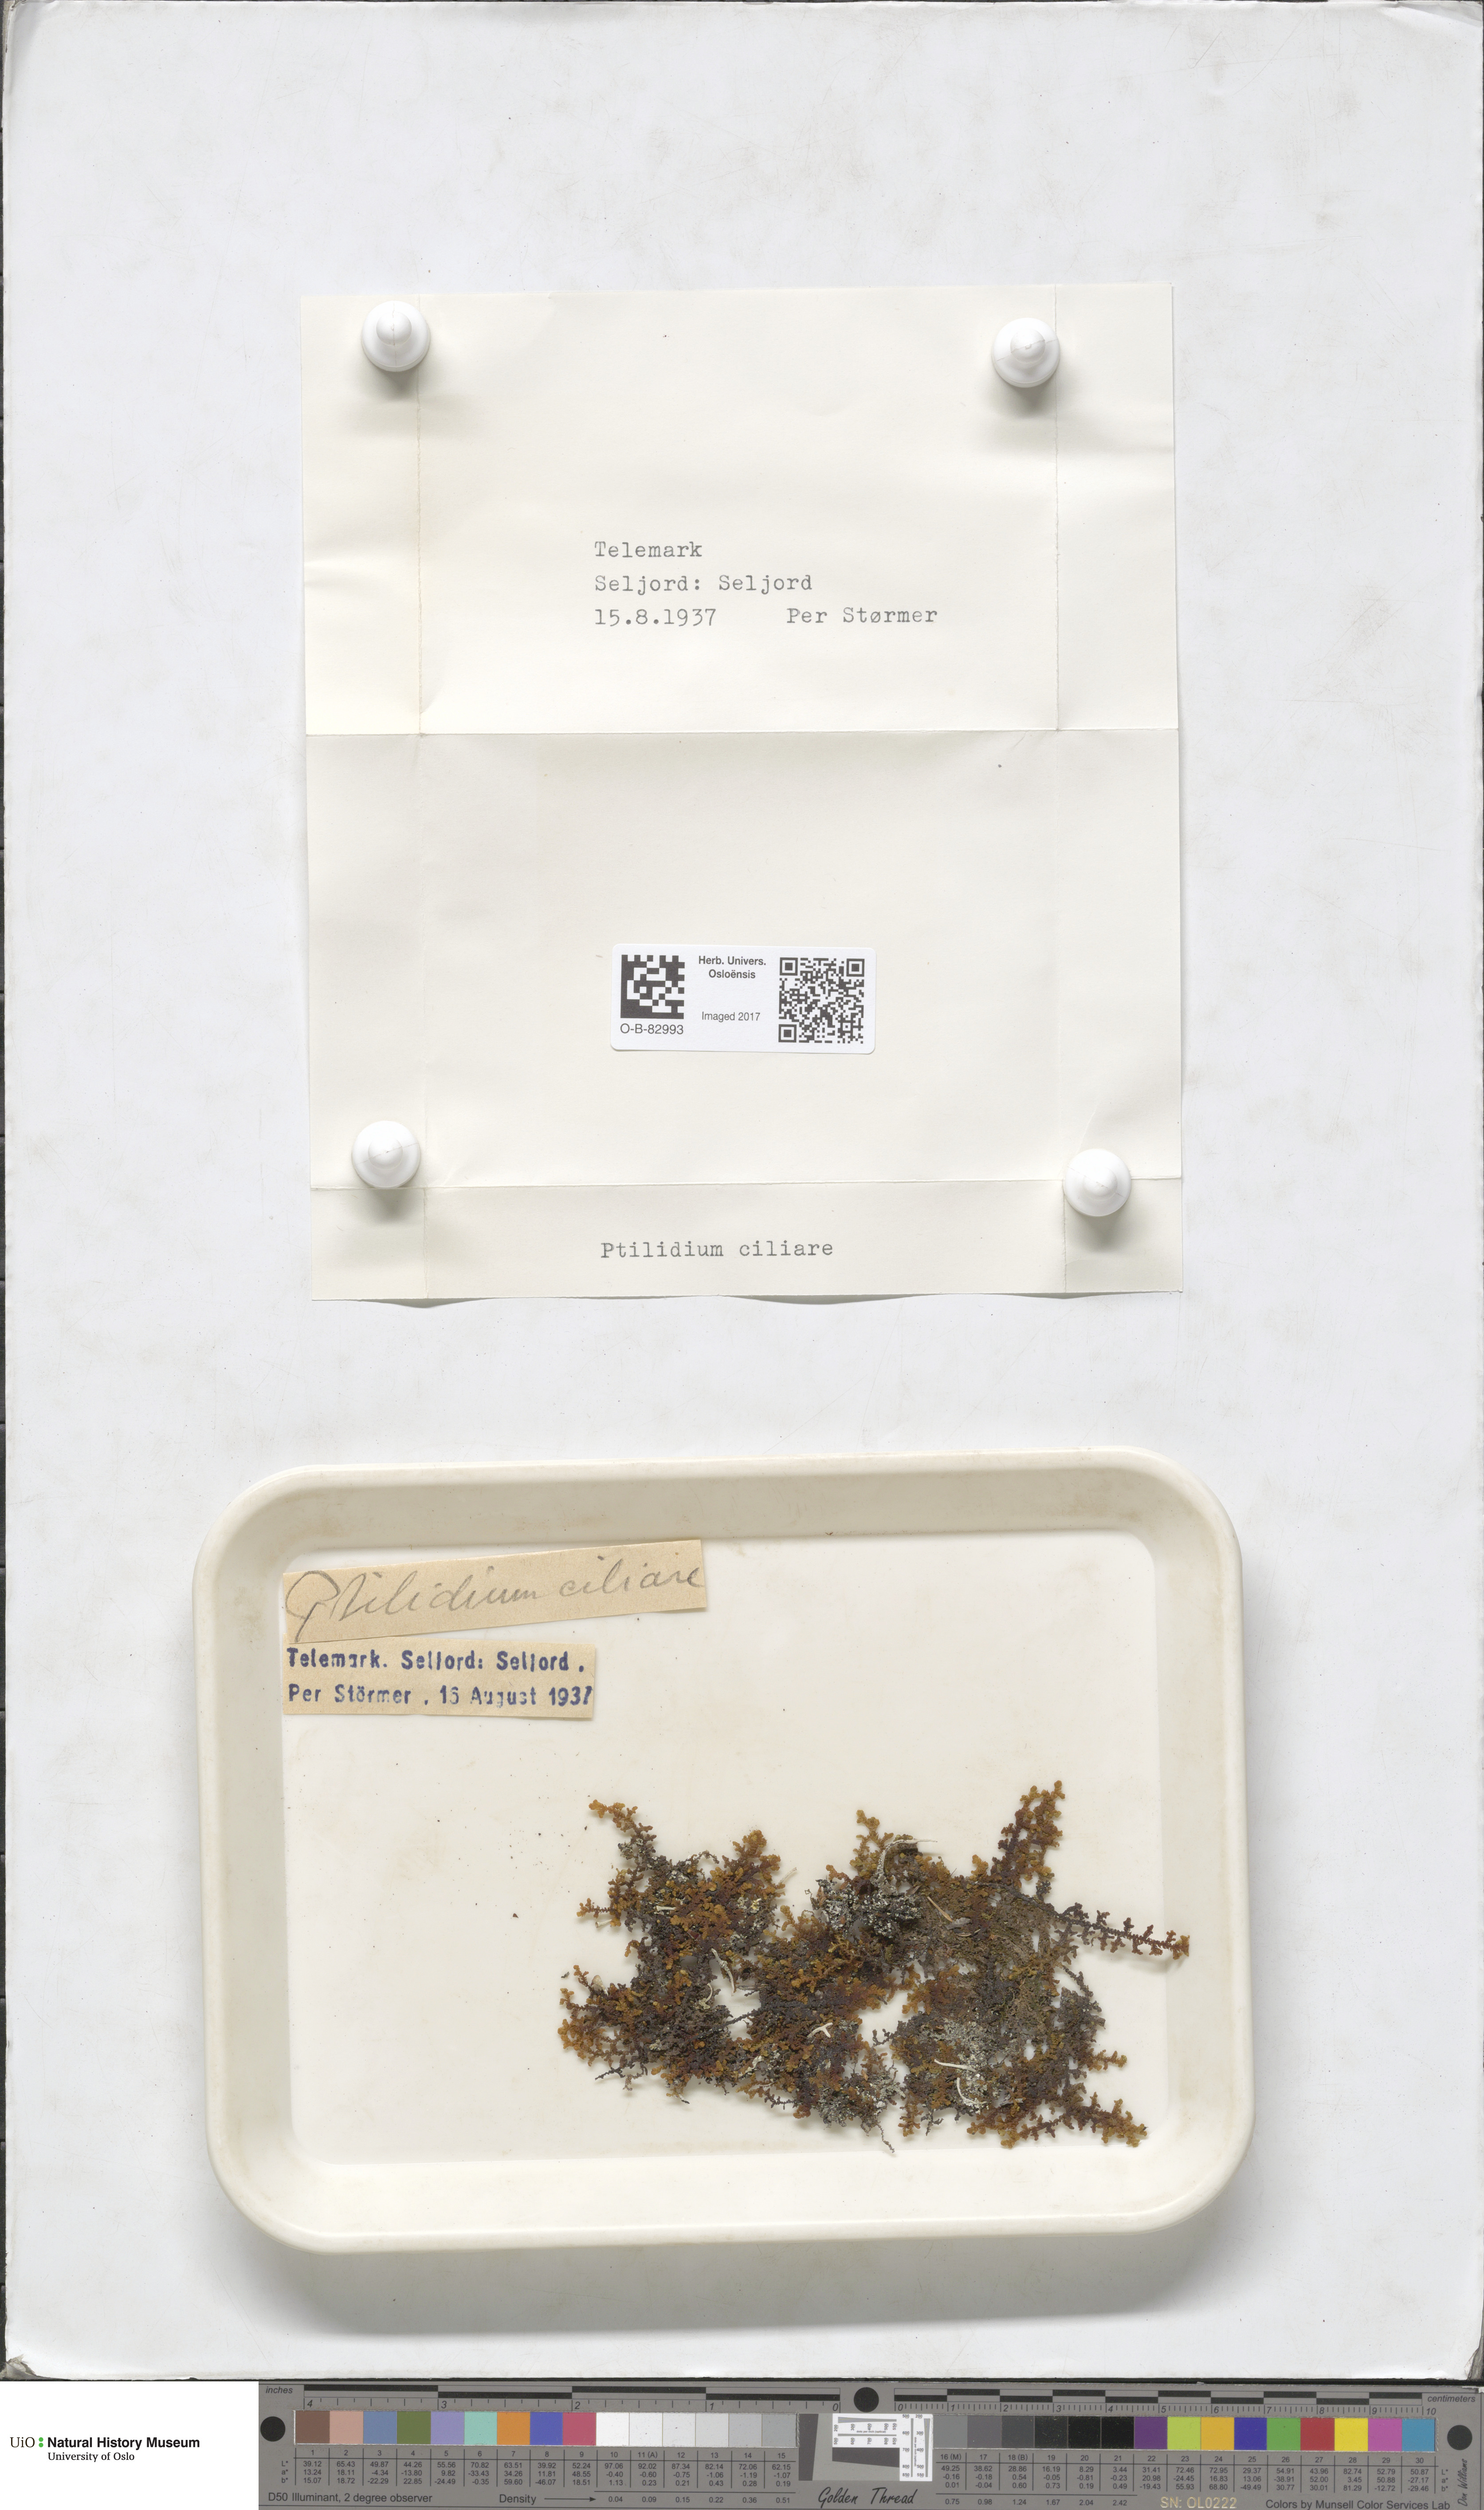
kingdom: Plantae
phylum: Marchantiophyta
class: Jungermanniopsida
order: Ptilidiales
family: Ptilidiaceae
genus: Ptilidium
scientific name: Ptilidium ciliare
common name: Ciliate fringewort
